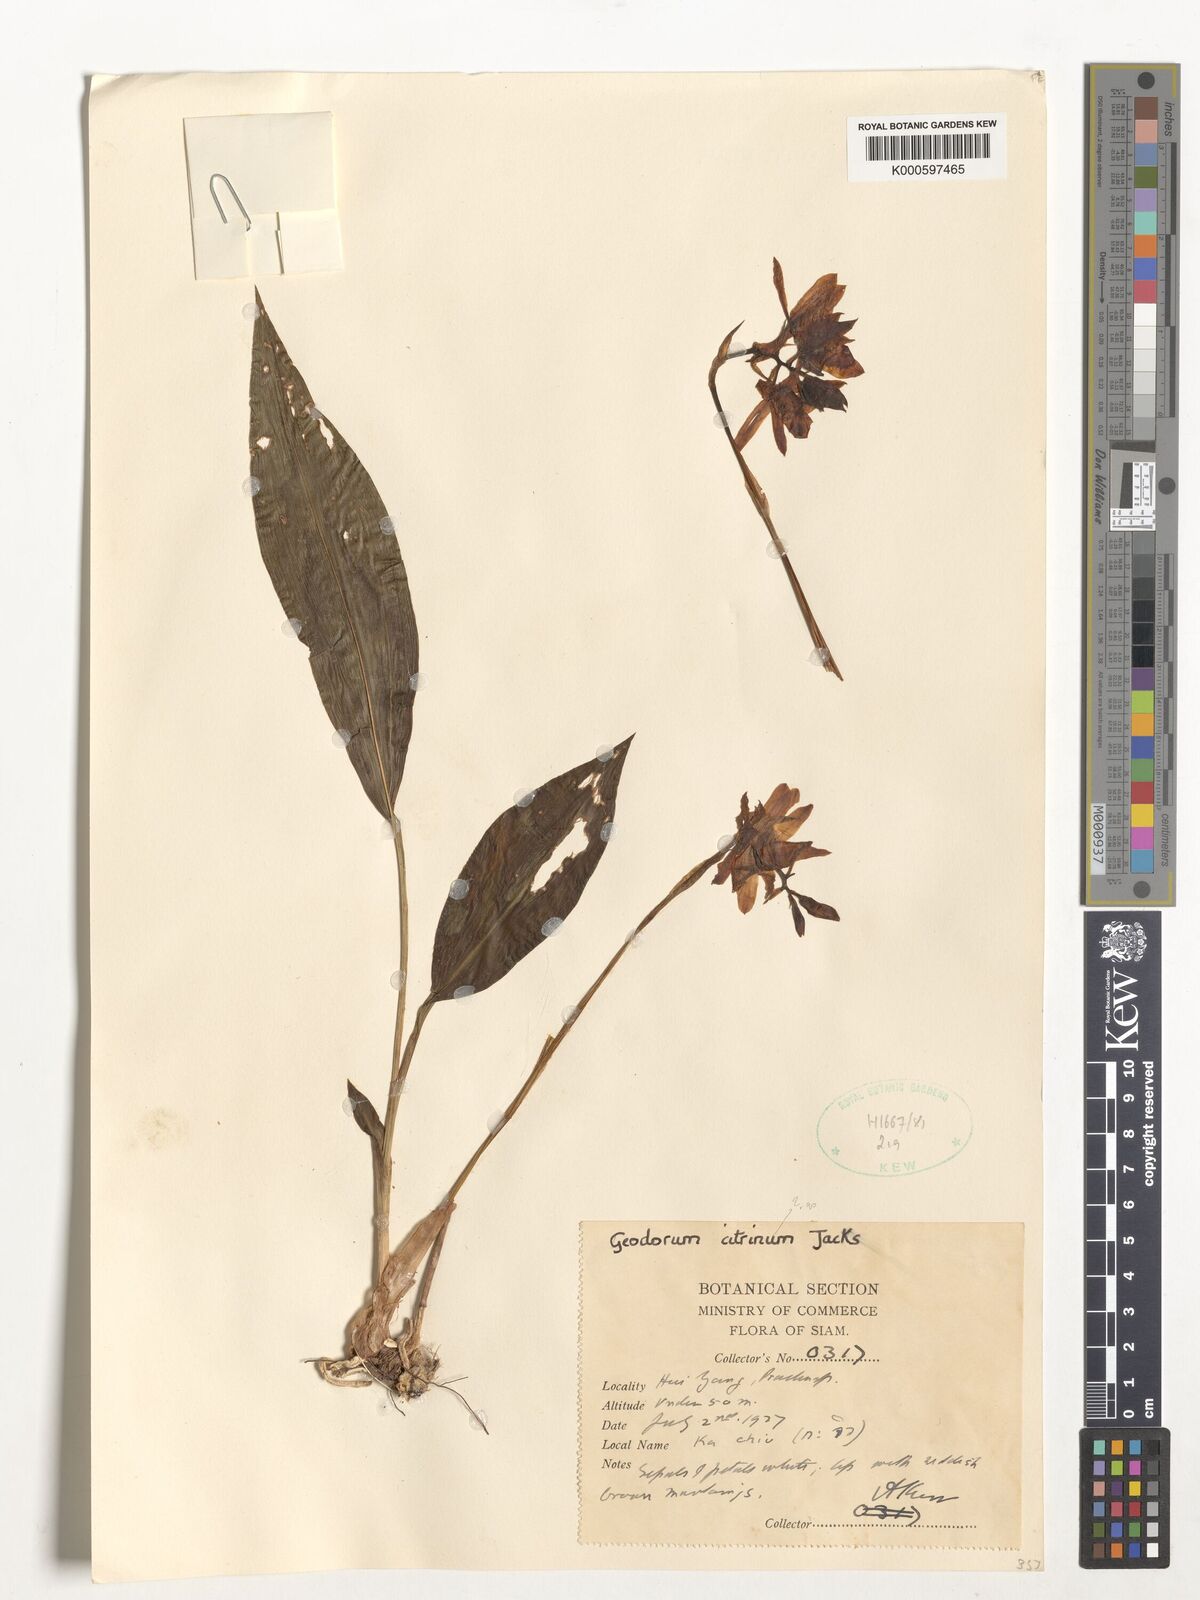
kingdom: Plantae
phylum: Tracheophyta
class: Liliopsida
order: Asparagales
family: Orchidaceae
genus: Geodorum
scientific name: Geodorum
